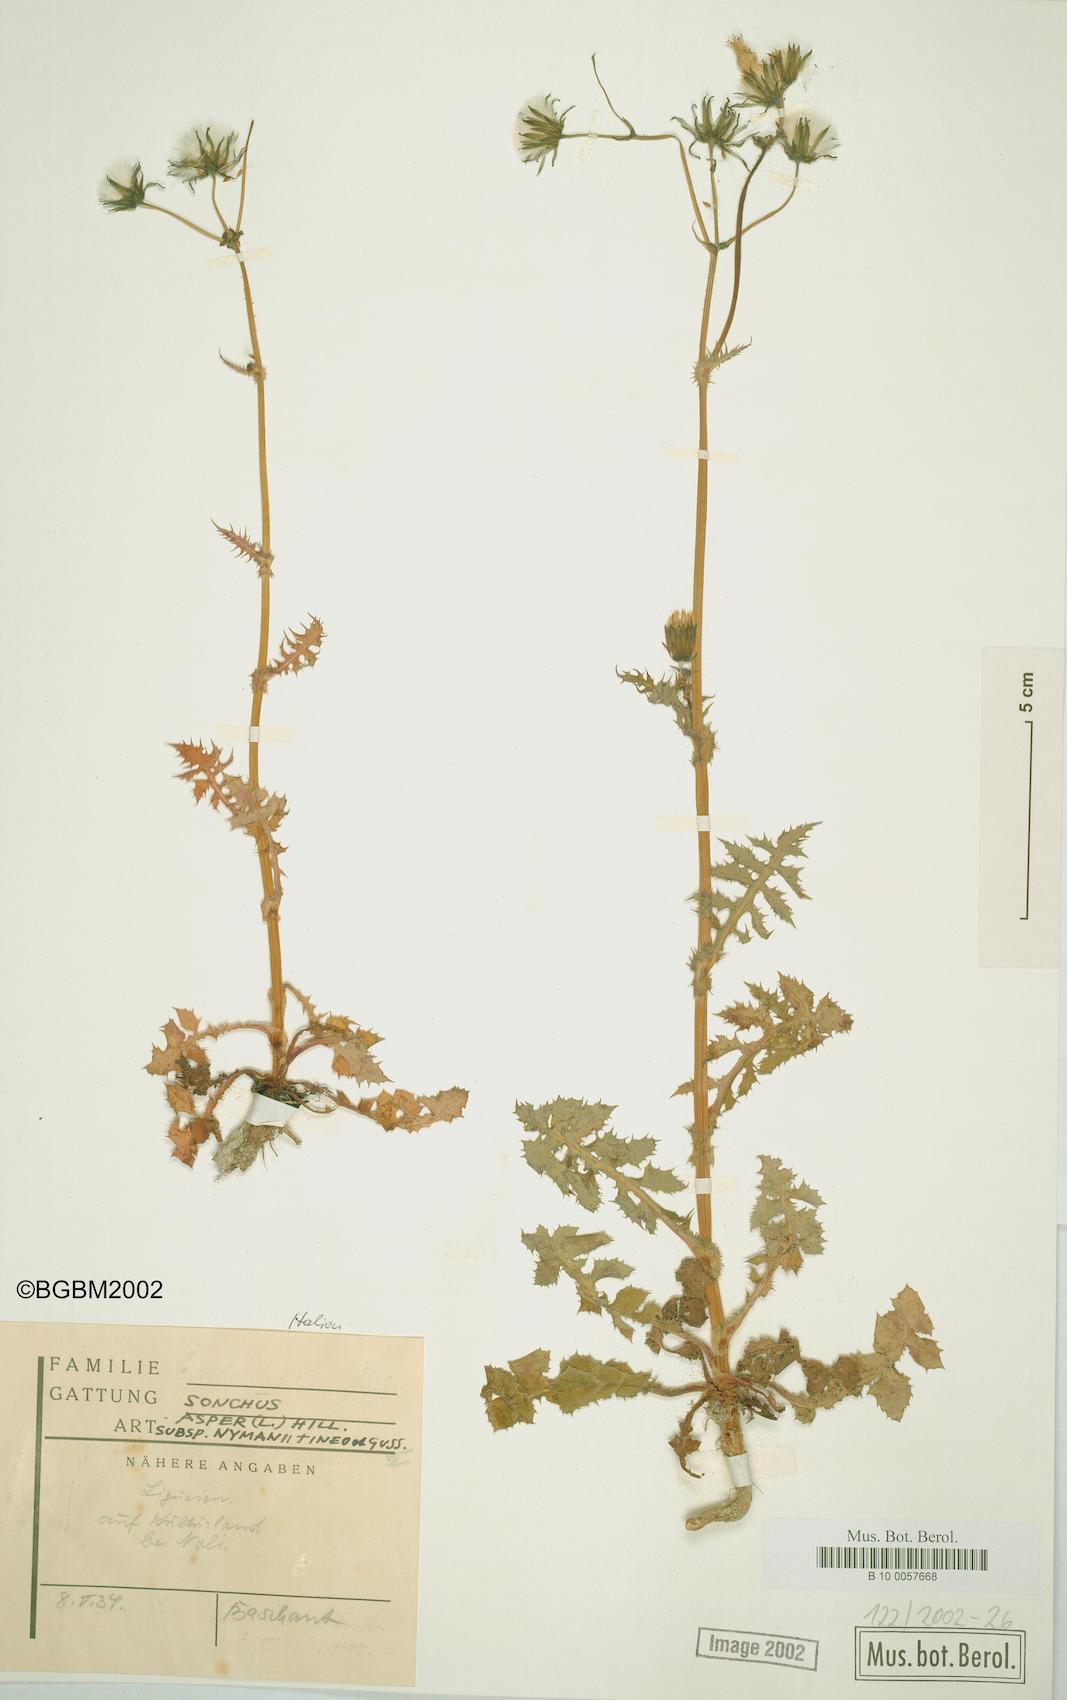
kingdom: Plantae
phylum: Tracheophyta
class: Magnoliopsida
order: Asterales
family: Asteraceae
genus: Sonchus
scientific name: Sonchus asper
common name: Prickly sow-thistle
